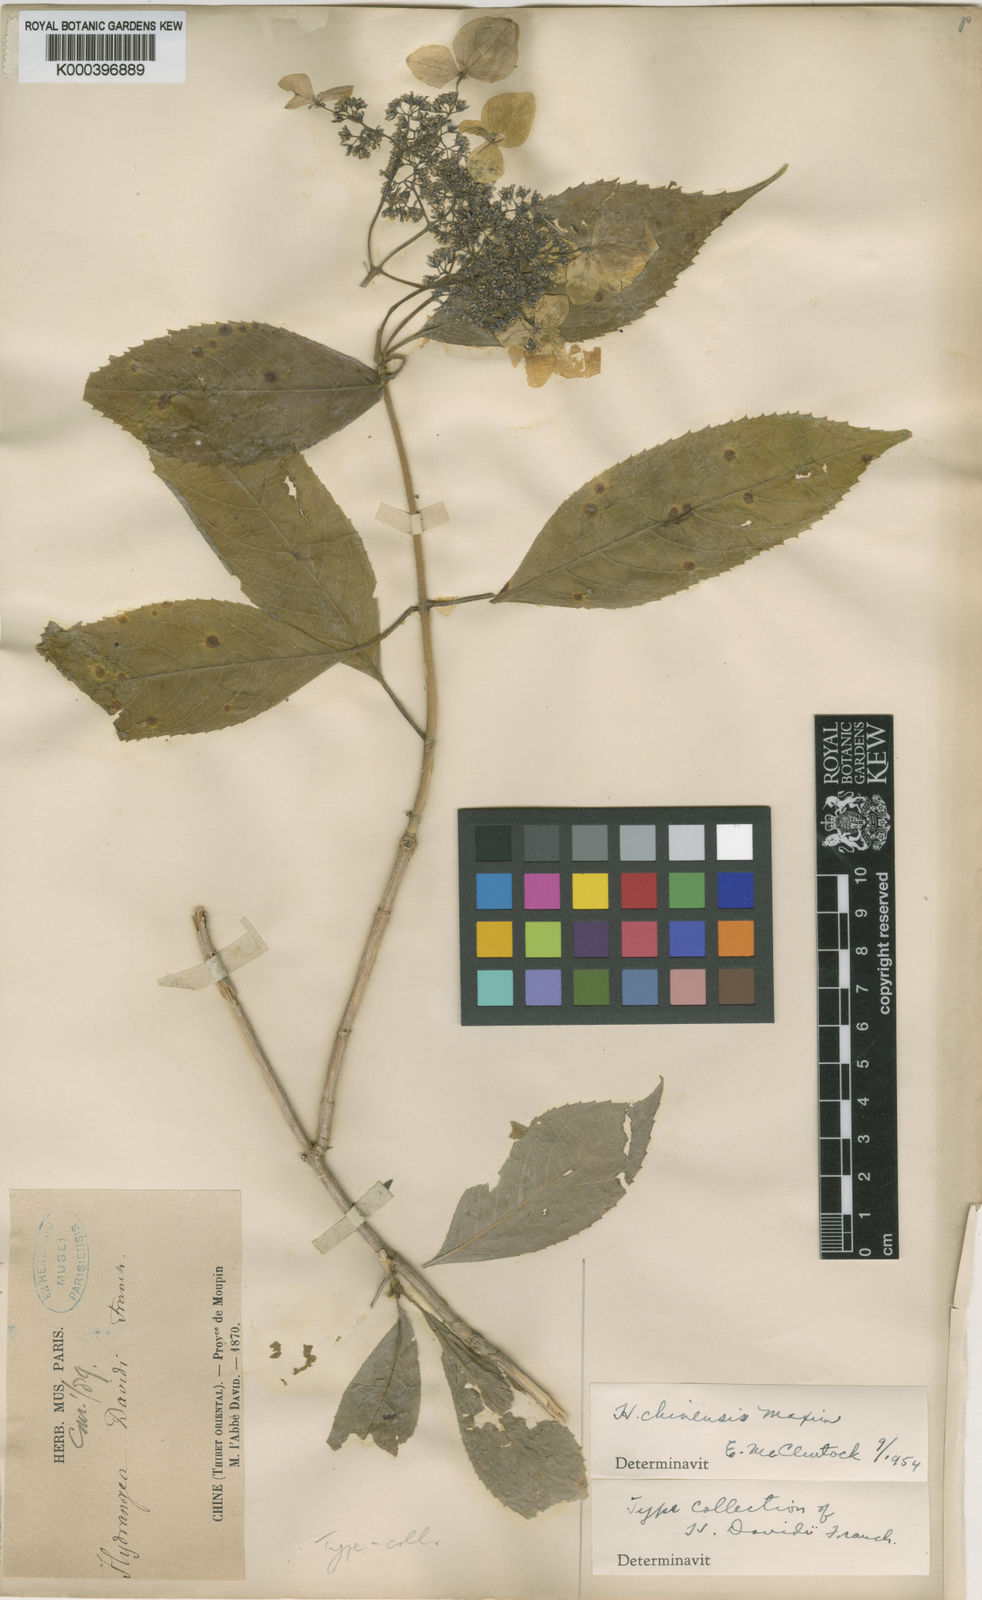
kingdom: Plantae
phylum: Tracheophyta
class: Magnoliopsida
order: Cornales
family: Hydrangeaceae
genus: Hydrangea
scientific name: Hydrangea chinensis
